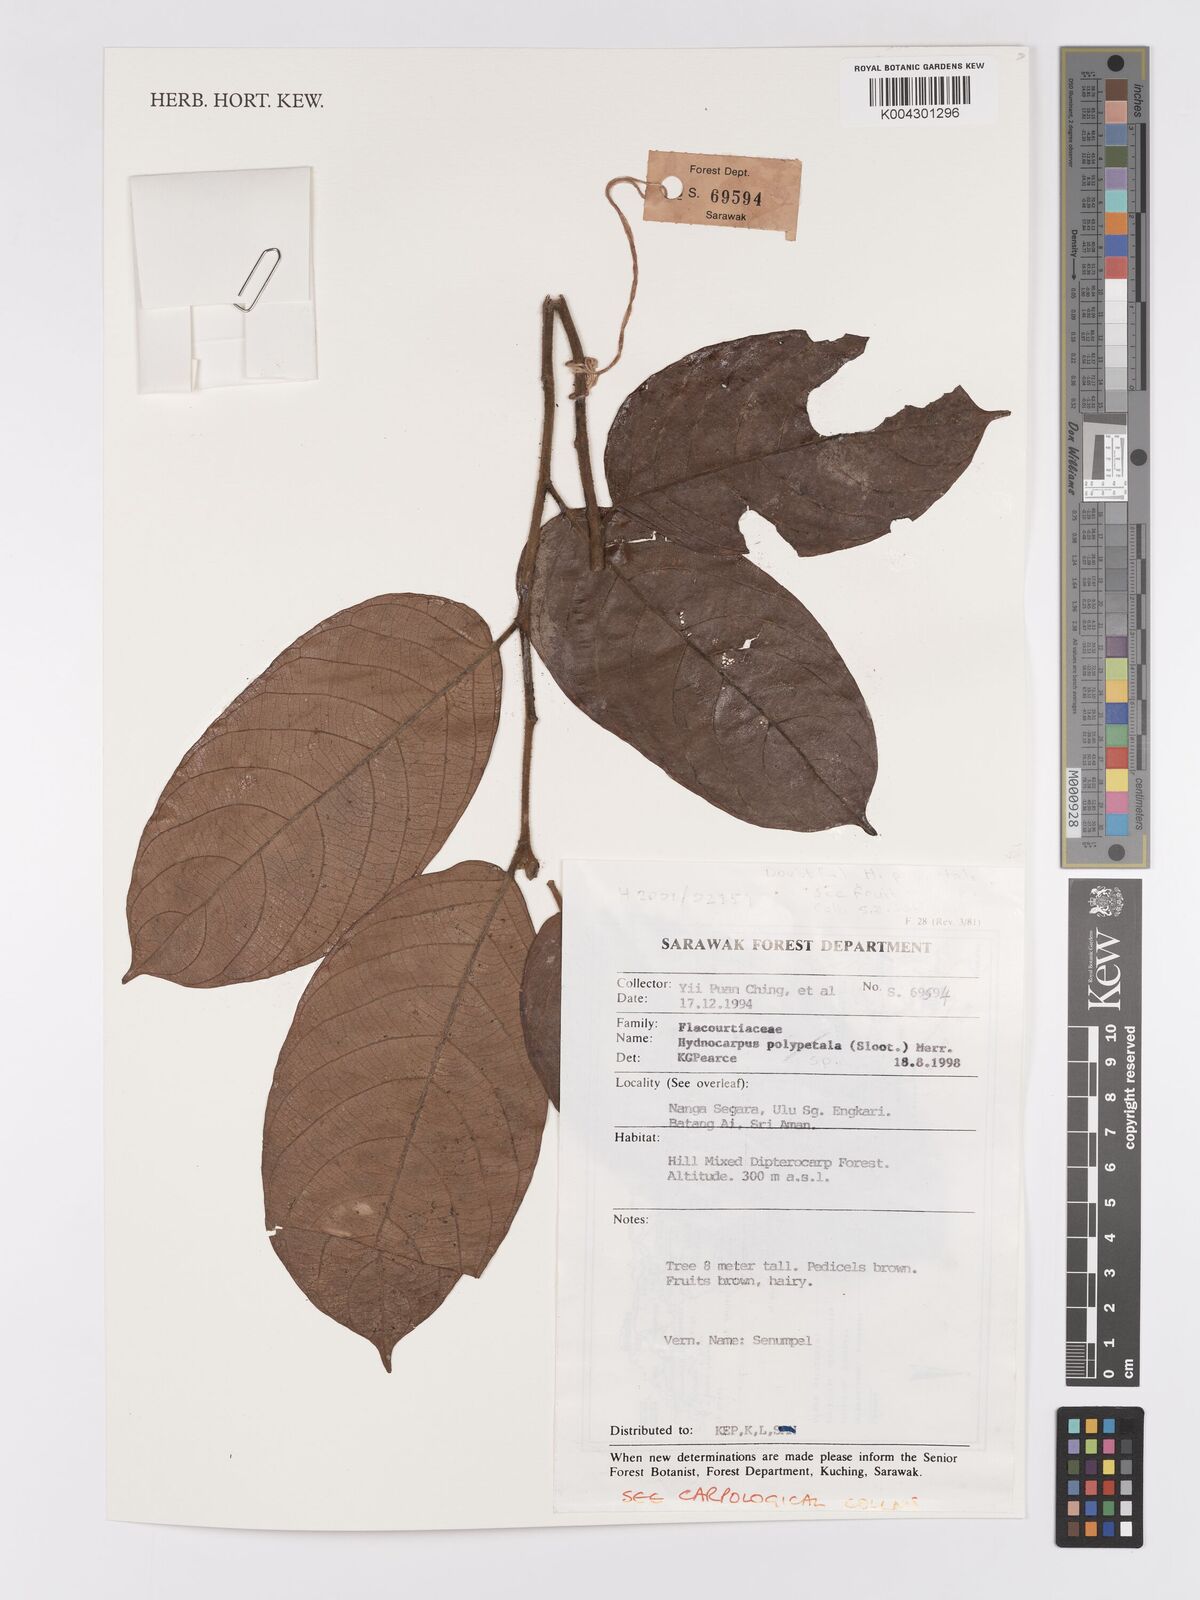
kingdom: Plantae
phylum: Tracheophyta
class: Magnoliopsida
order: Malpighiales
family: Achariaceae
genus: Hydnocarpus
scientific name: Hydnocarpus
